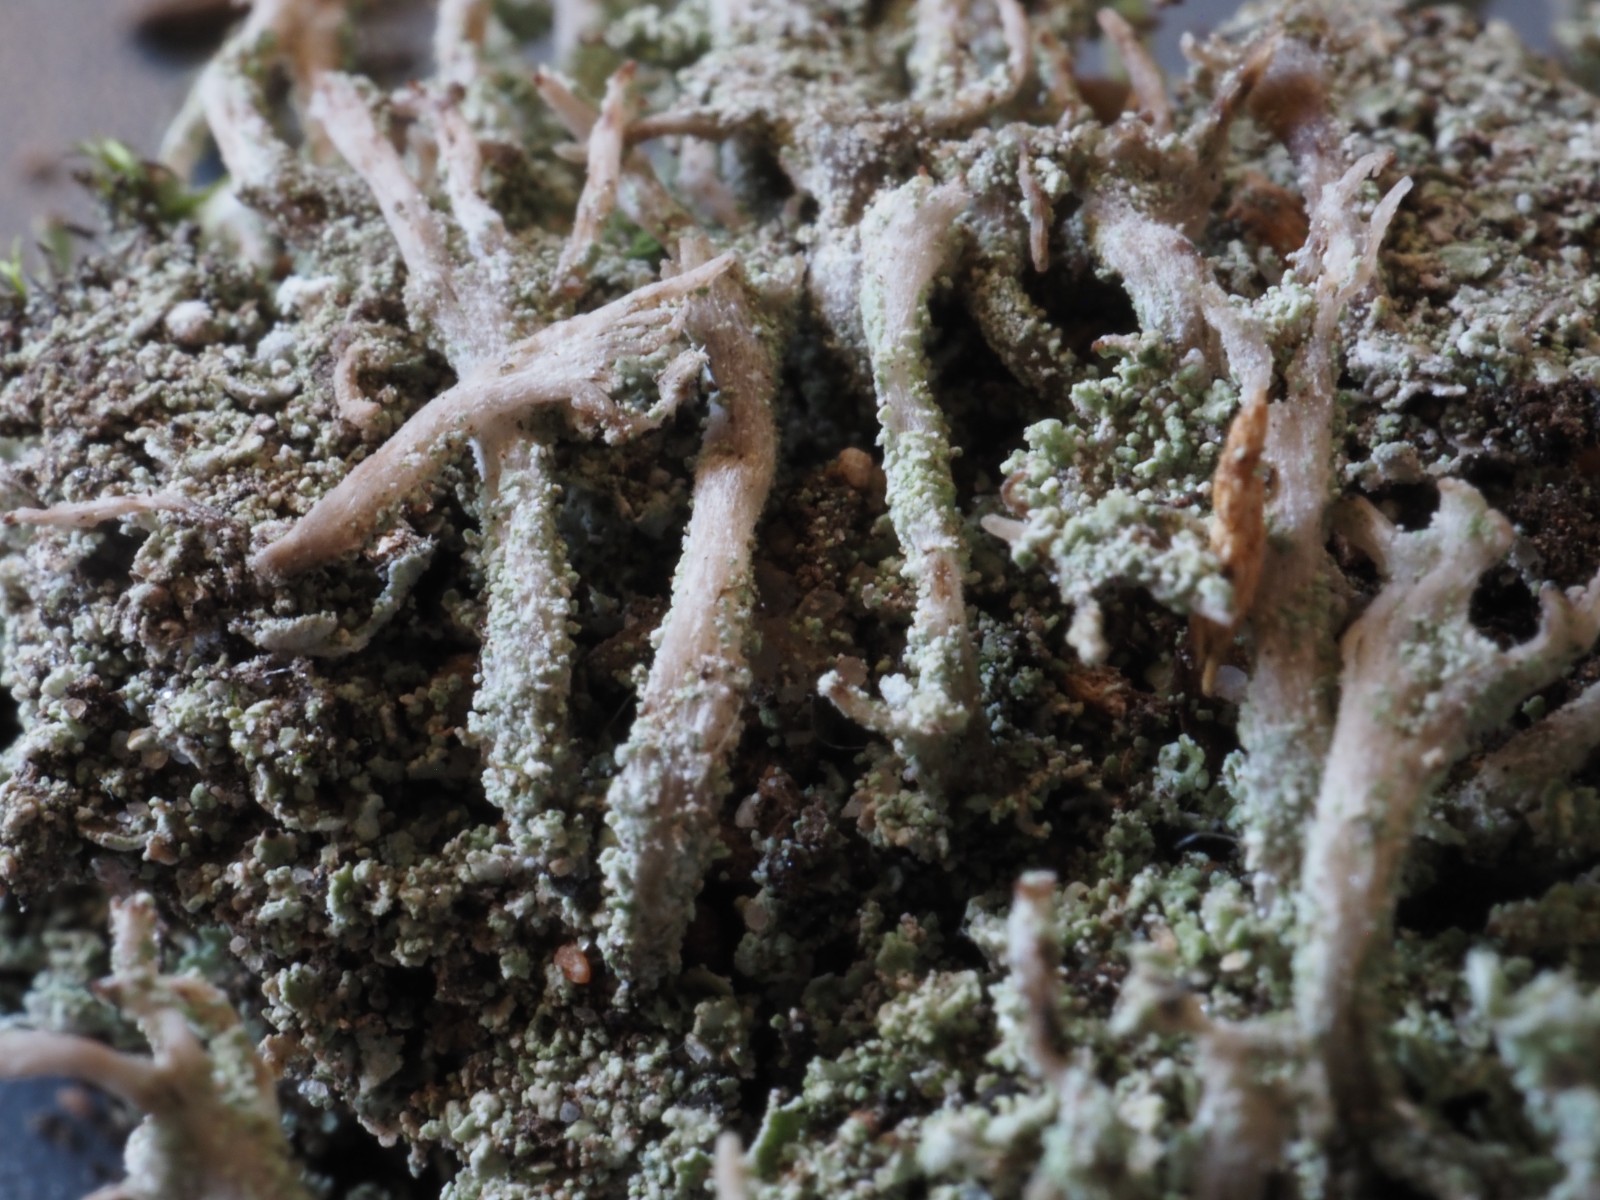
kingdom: Fungi
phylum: Ascomycota
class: Lecanoromycetes
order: Lecanorales
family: Cladoniaceae
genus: Cladonia
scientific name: Cladonia polydactyla
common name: vifte-bægerlav
